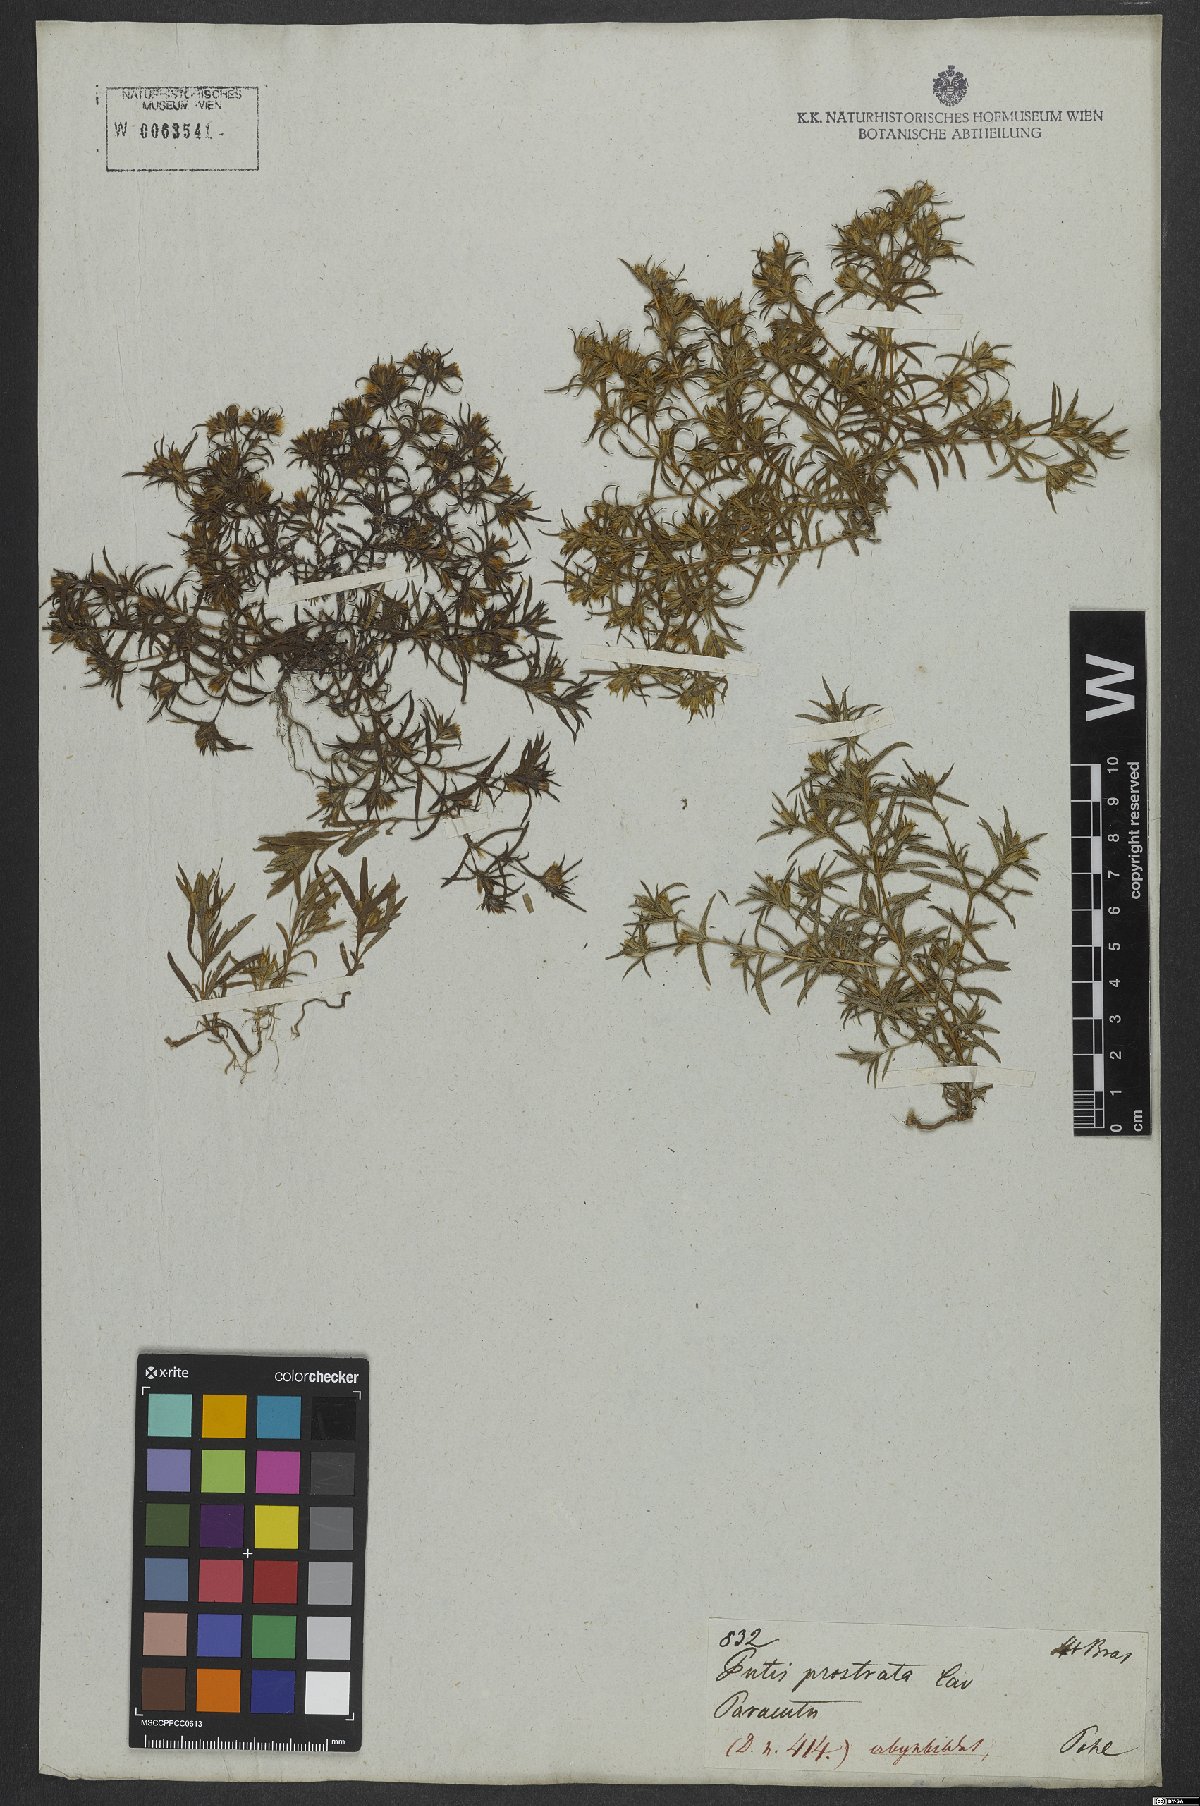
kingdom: Plantae
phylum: Tracheophyta
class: Magnoliopsida
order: Asterales
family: Asteraceae
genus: Pectis
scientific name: Pectis prostrata
